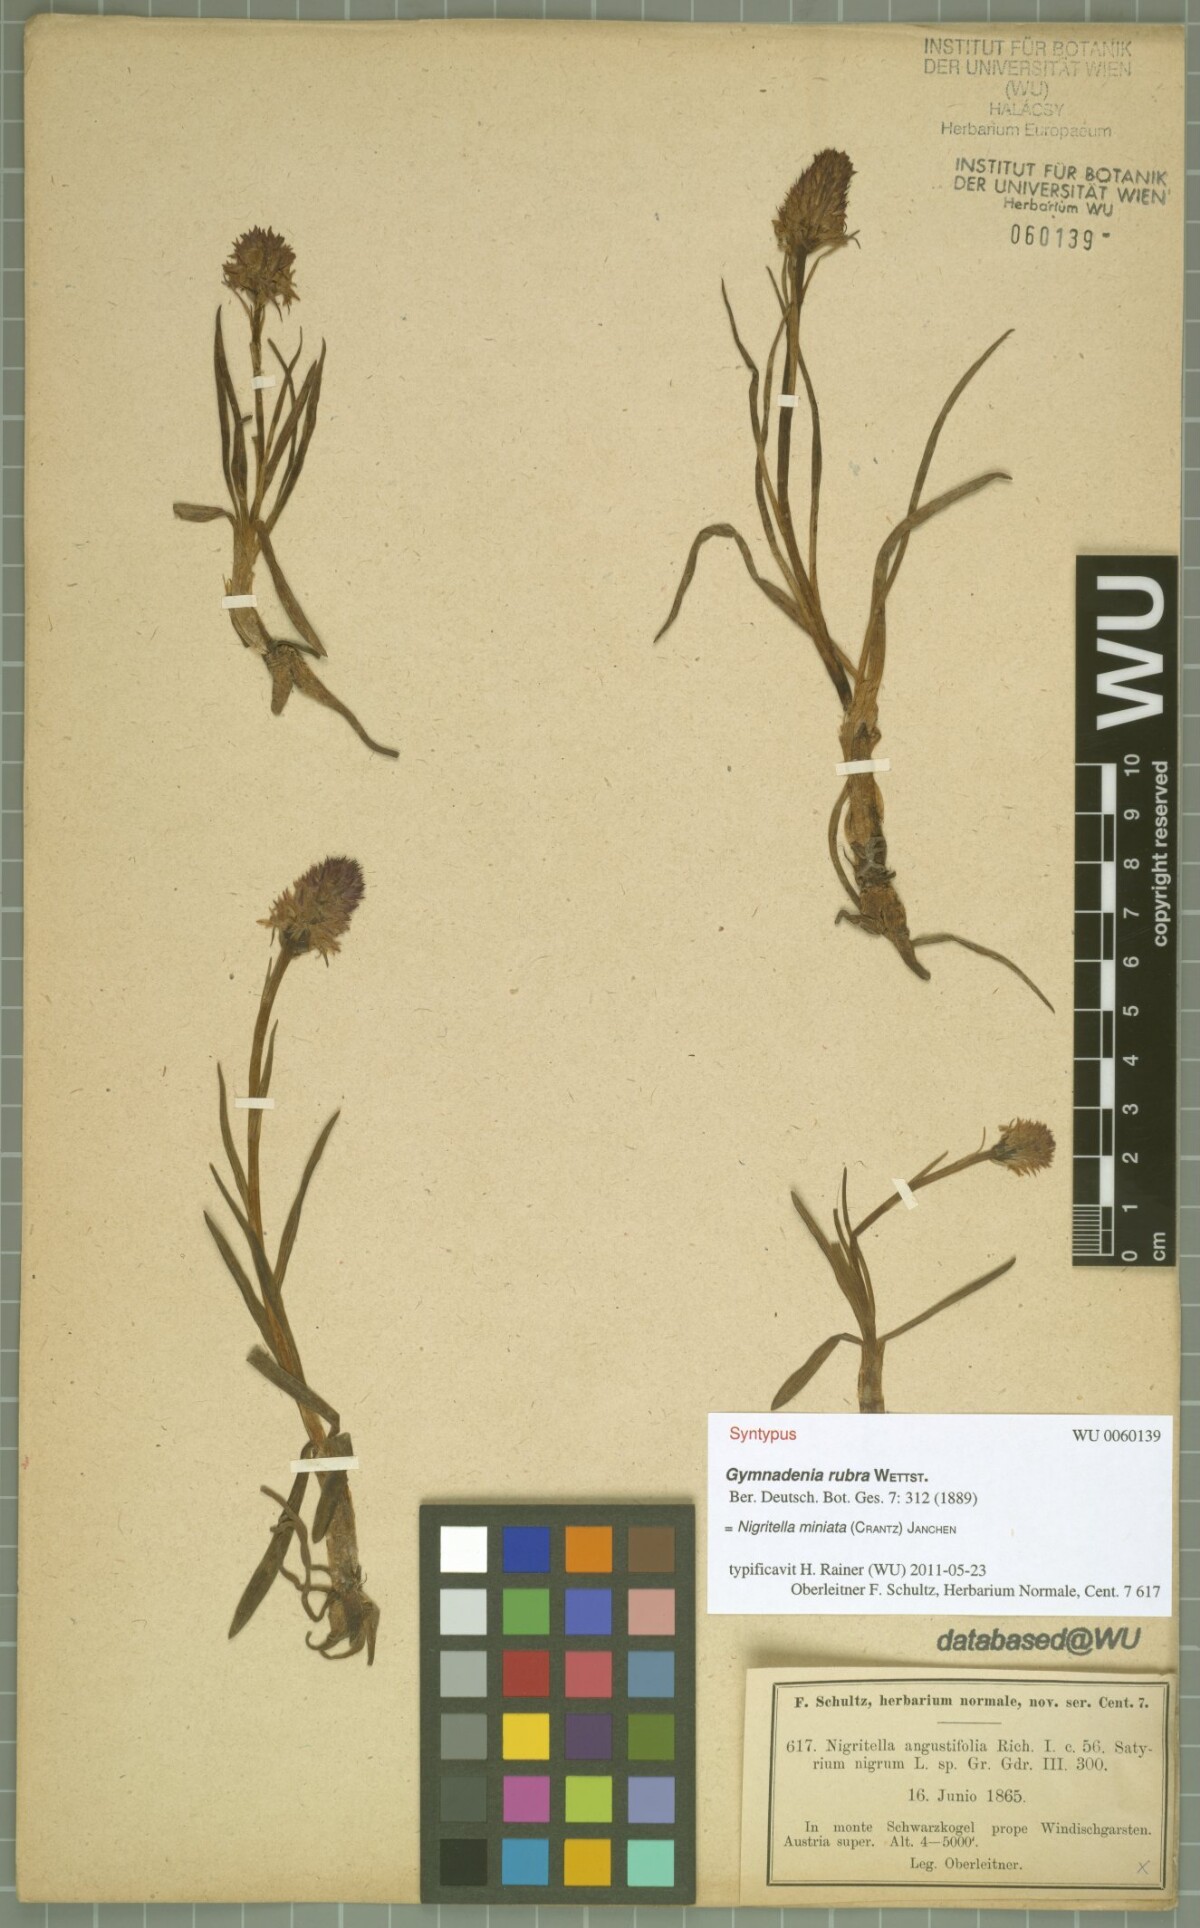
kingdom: Plantae
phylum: Tracheophyta
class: Liliopsida
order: Asparagales
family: Orchidaceae
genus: Gymnadenia
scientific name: Gymnadenia miniata
